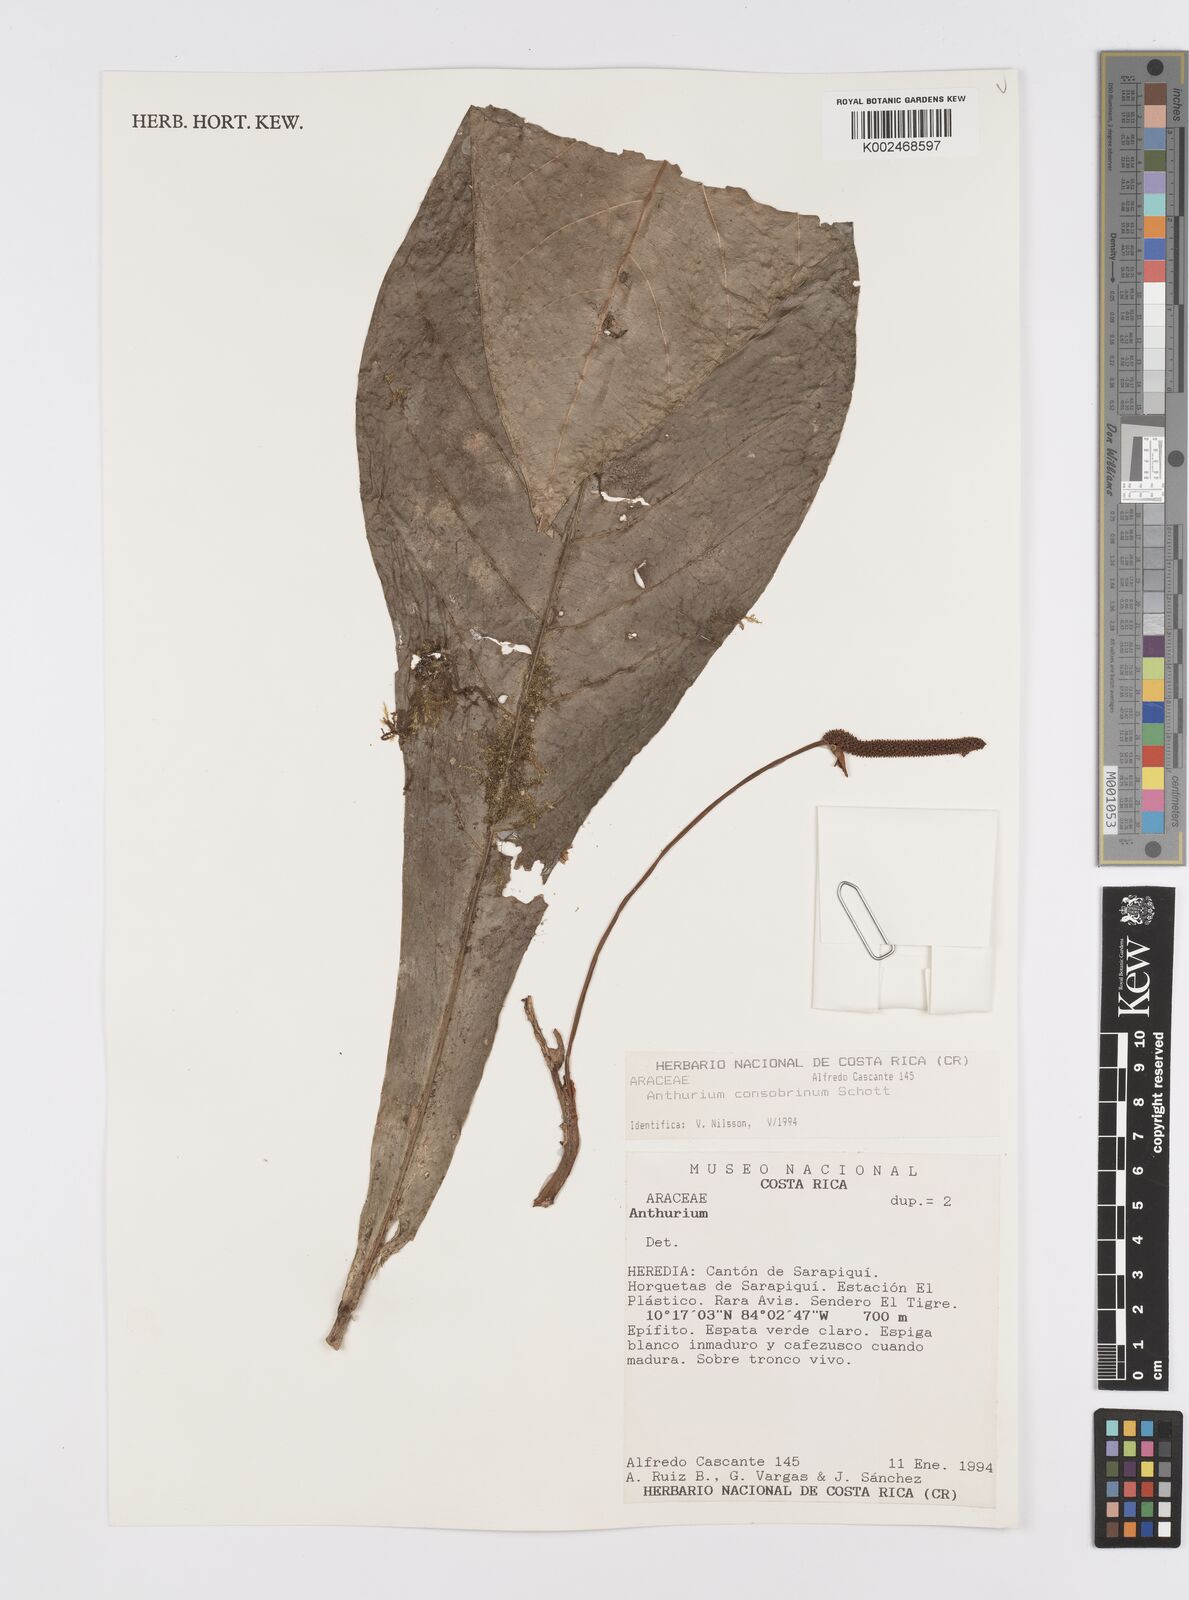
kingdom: Plantae
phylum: Tracheophyta
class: Liliopsida
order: Alismatales
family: Araceae
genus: Anthurium
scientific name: Anthurium consobrinum
